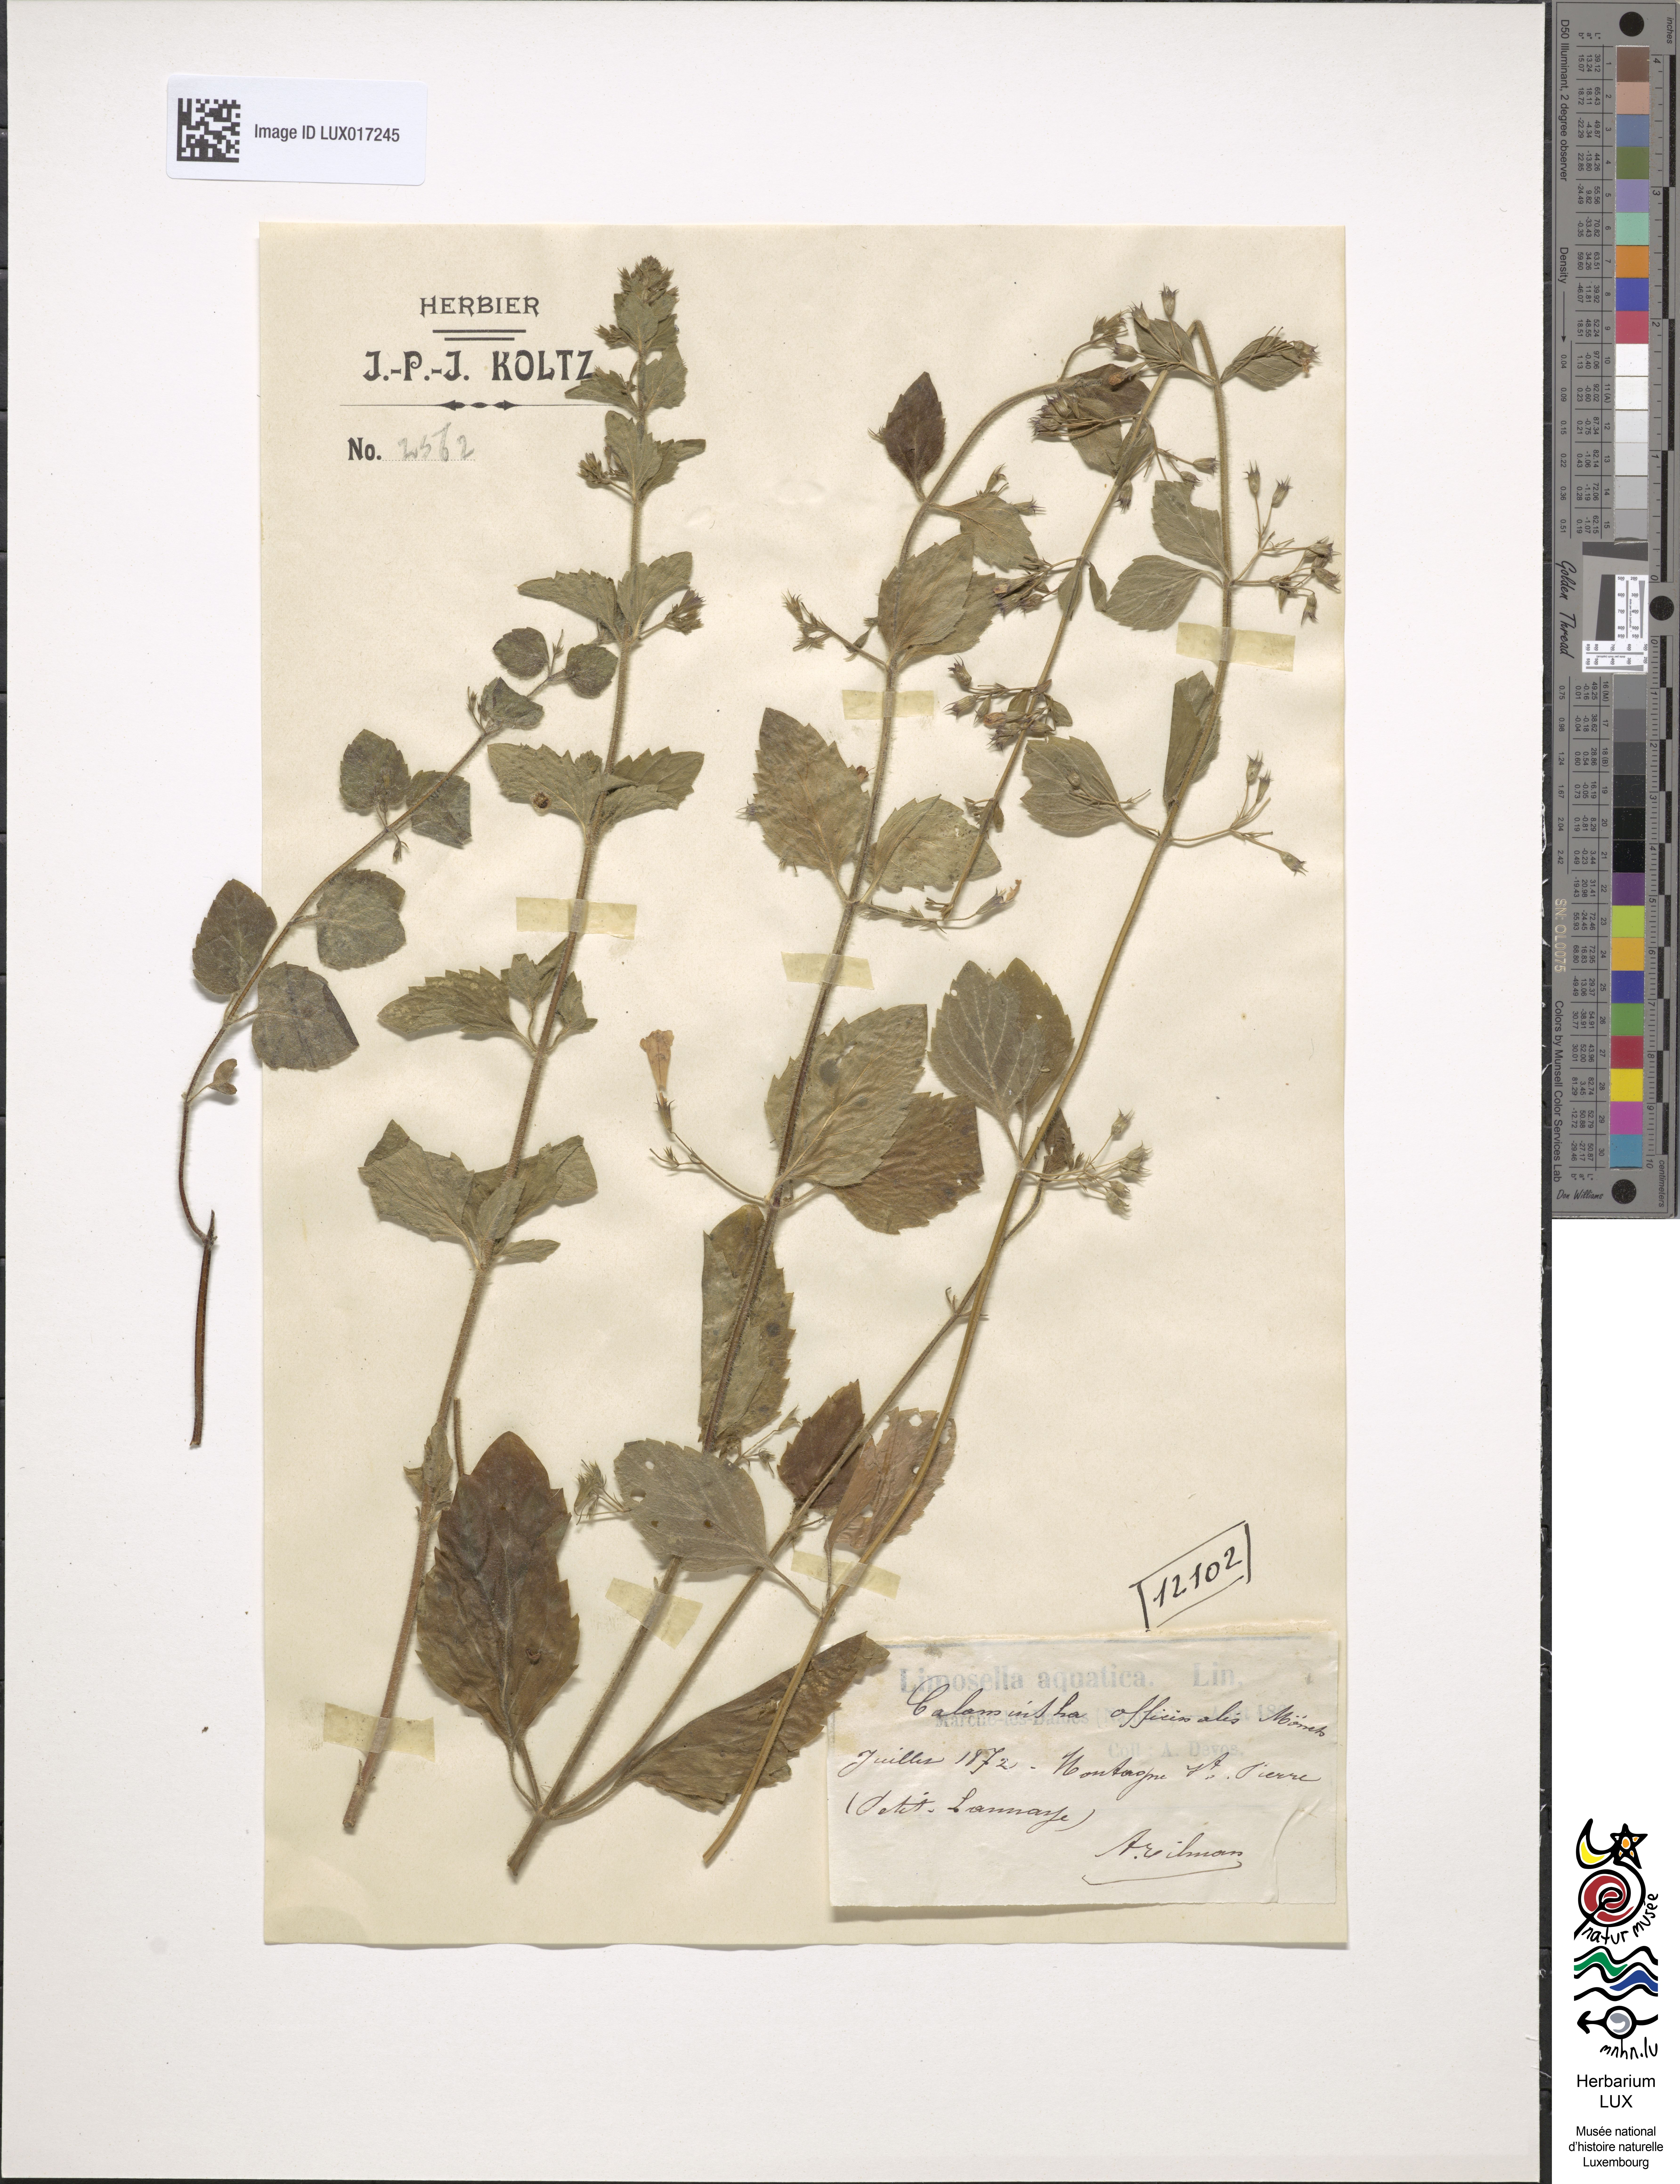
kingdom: Plantae
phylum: Tracheophyta
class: Magnoliopsida
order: Lamiales
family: Lamiaceae
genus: Clinopodium
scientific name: Clinopodium menthifolium
